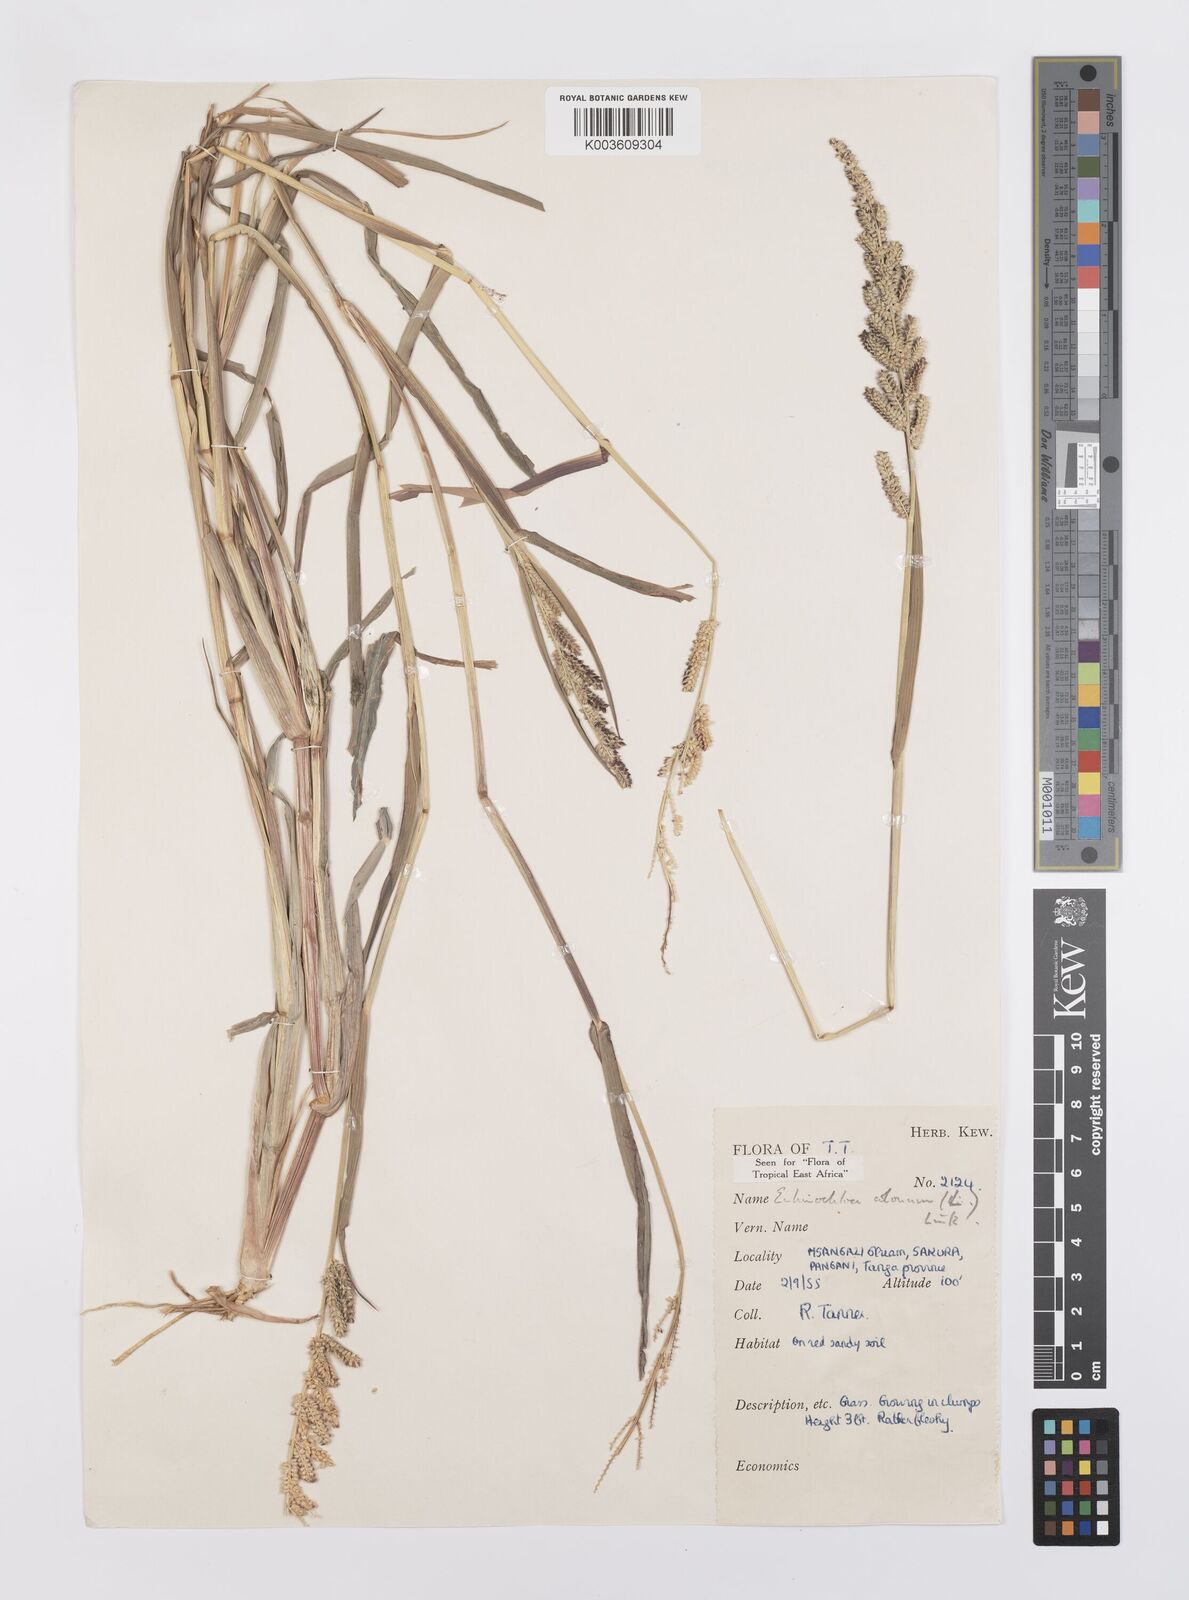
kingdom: Plantae
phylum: Tracheophyta
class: Liliopsida
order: Poales
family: Poaceae
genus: Echinochloa
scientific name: Echinochloa colonum
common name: Jungle rice
